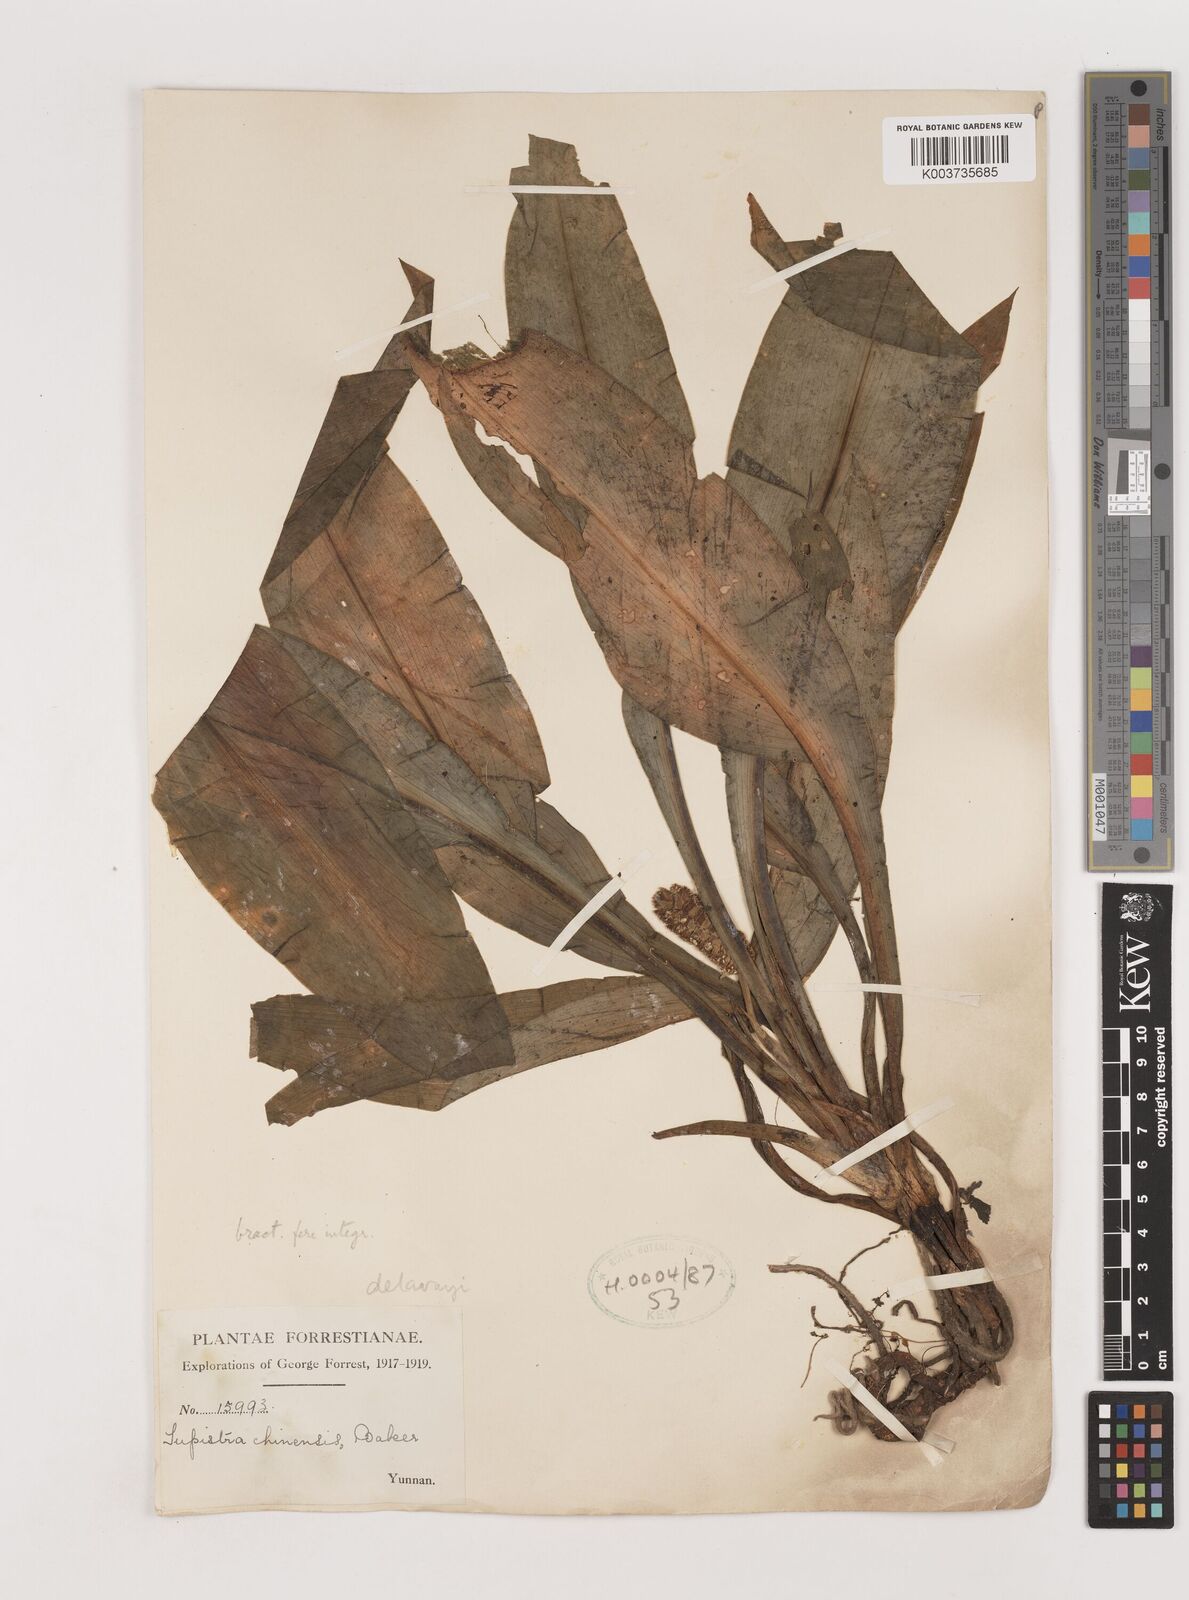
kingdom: Plantae
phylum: Tracheophyta
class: Liliopsida
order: Asparagales
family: Asparagaceae
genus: Rohdea
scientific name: Rohdea delavayi
